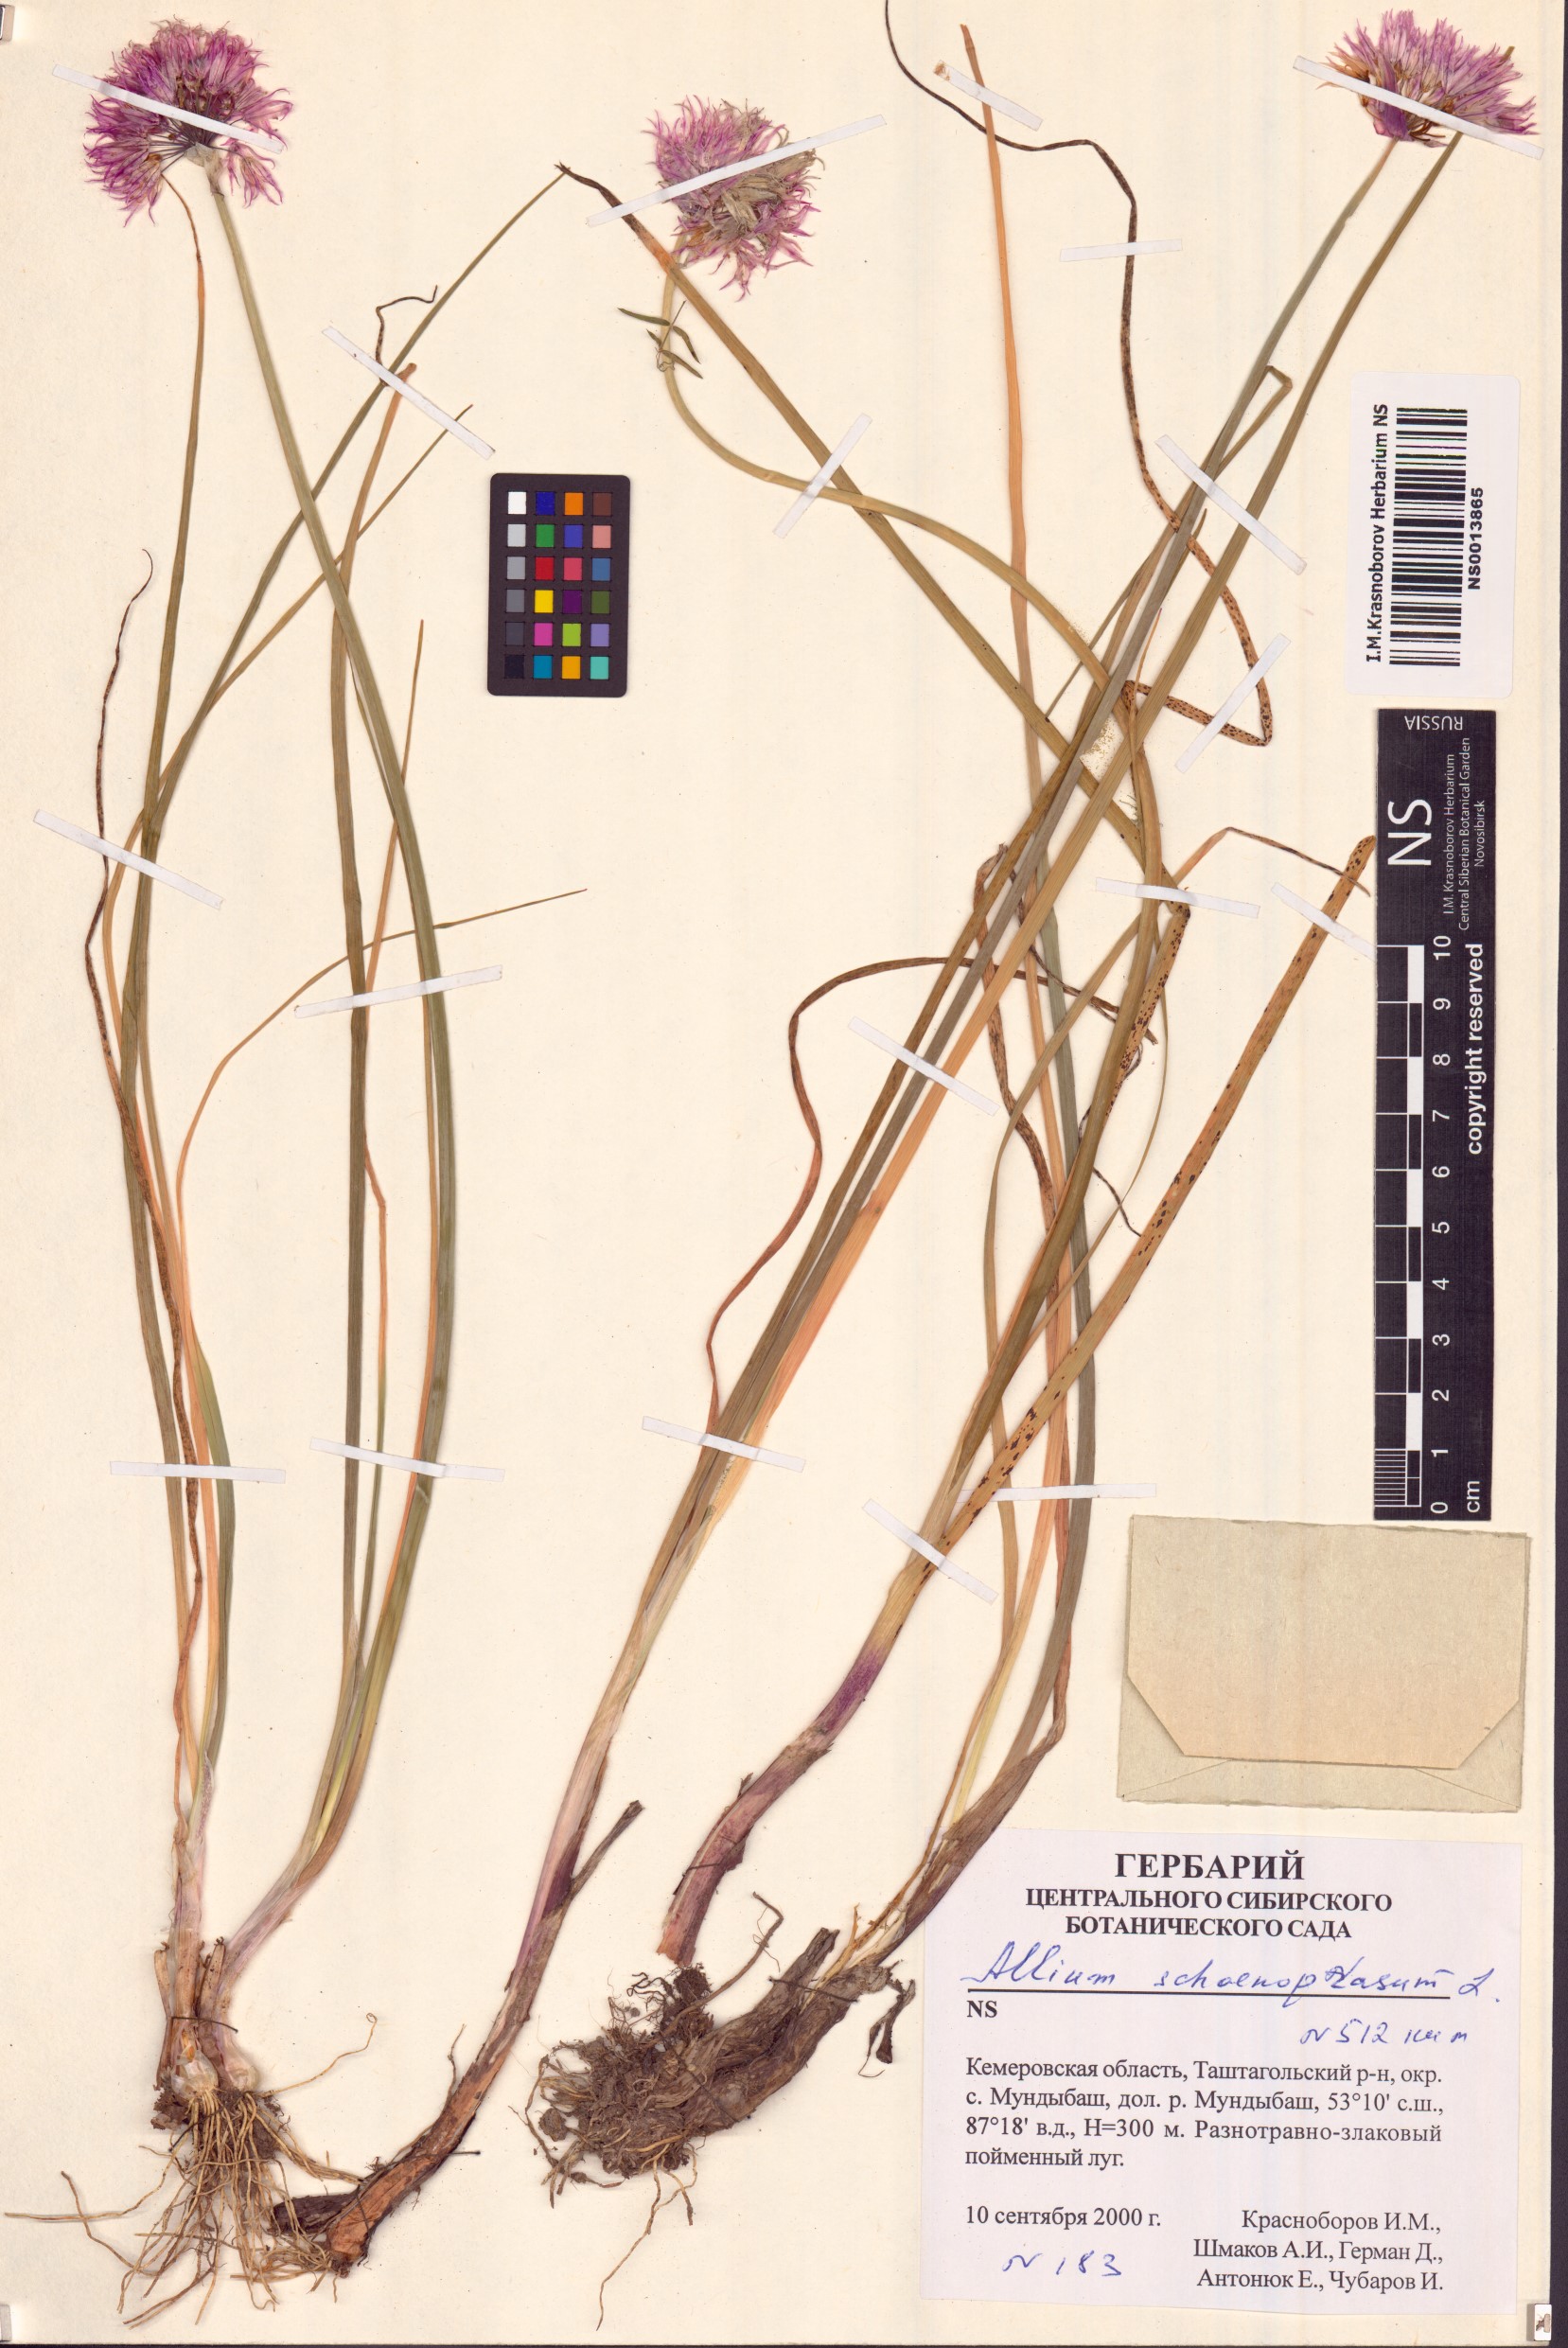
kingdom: Plantae
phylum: Tracheophyta
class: Liliopsida
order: Asparagales
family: Amaryllidaceae
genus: Allium
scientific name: Allium schoenoprasum
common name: Chives
